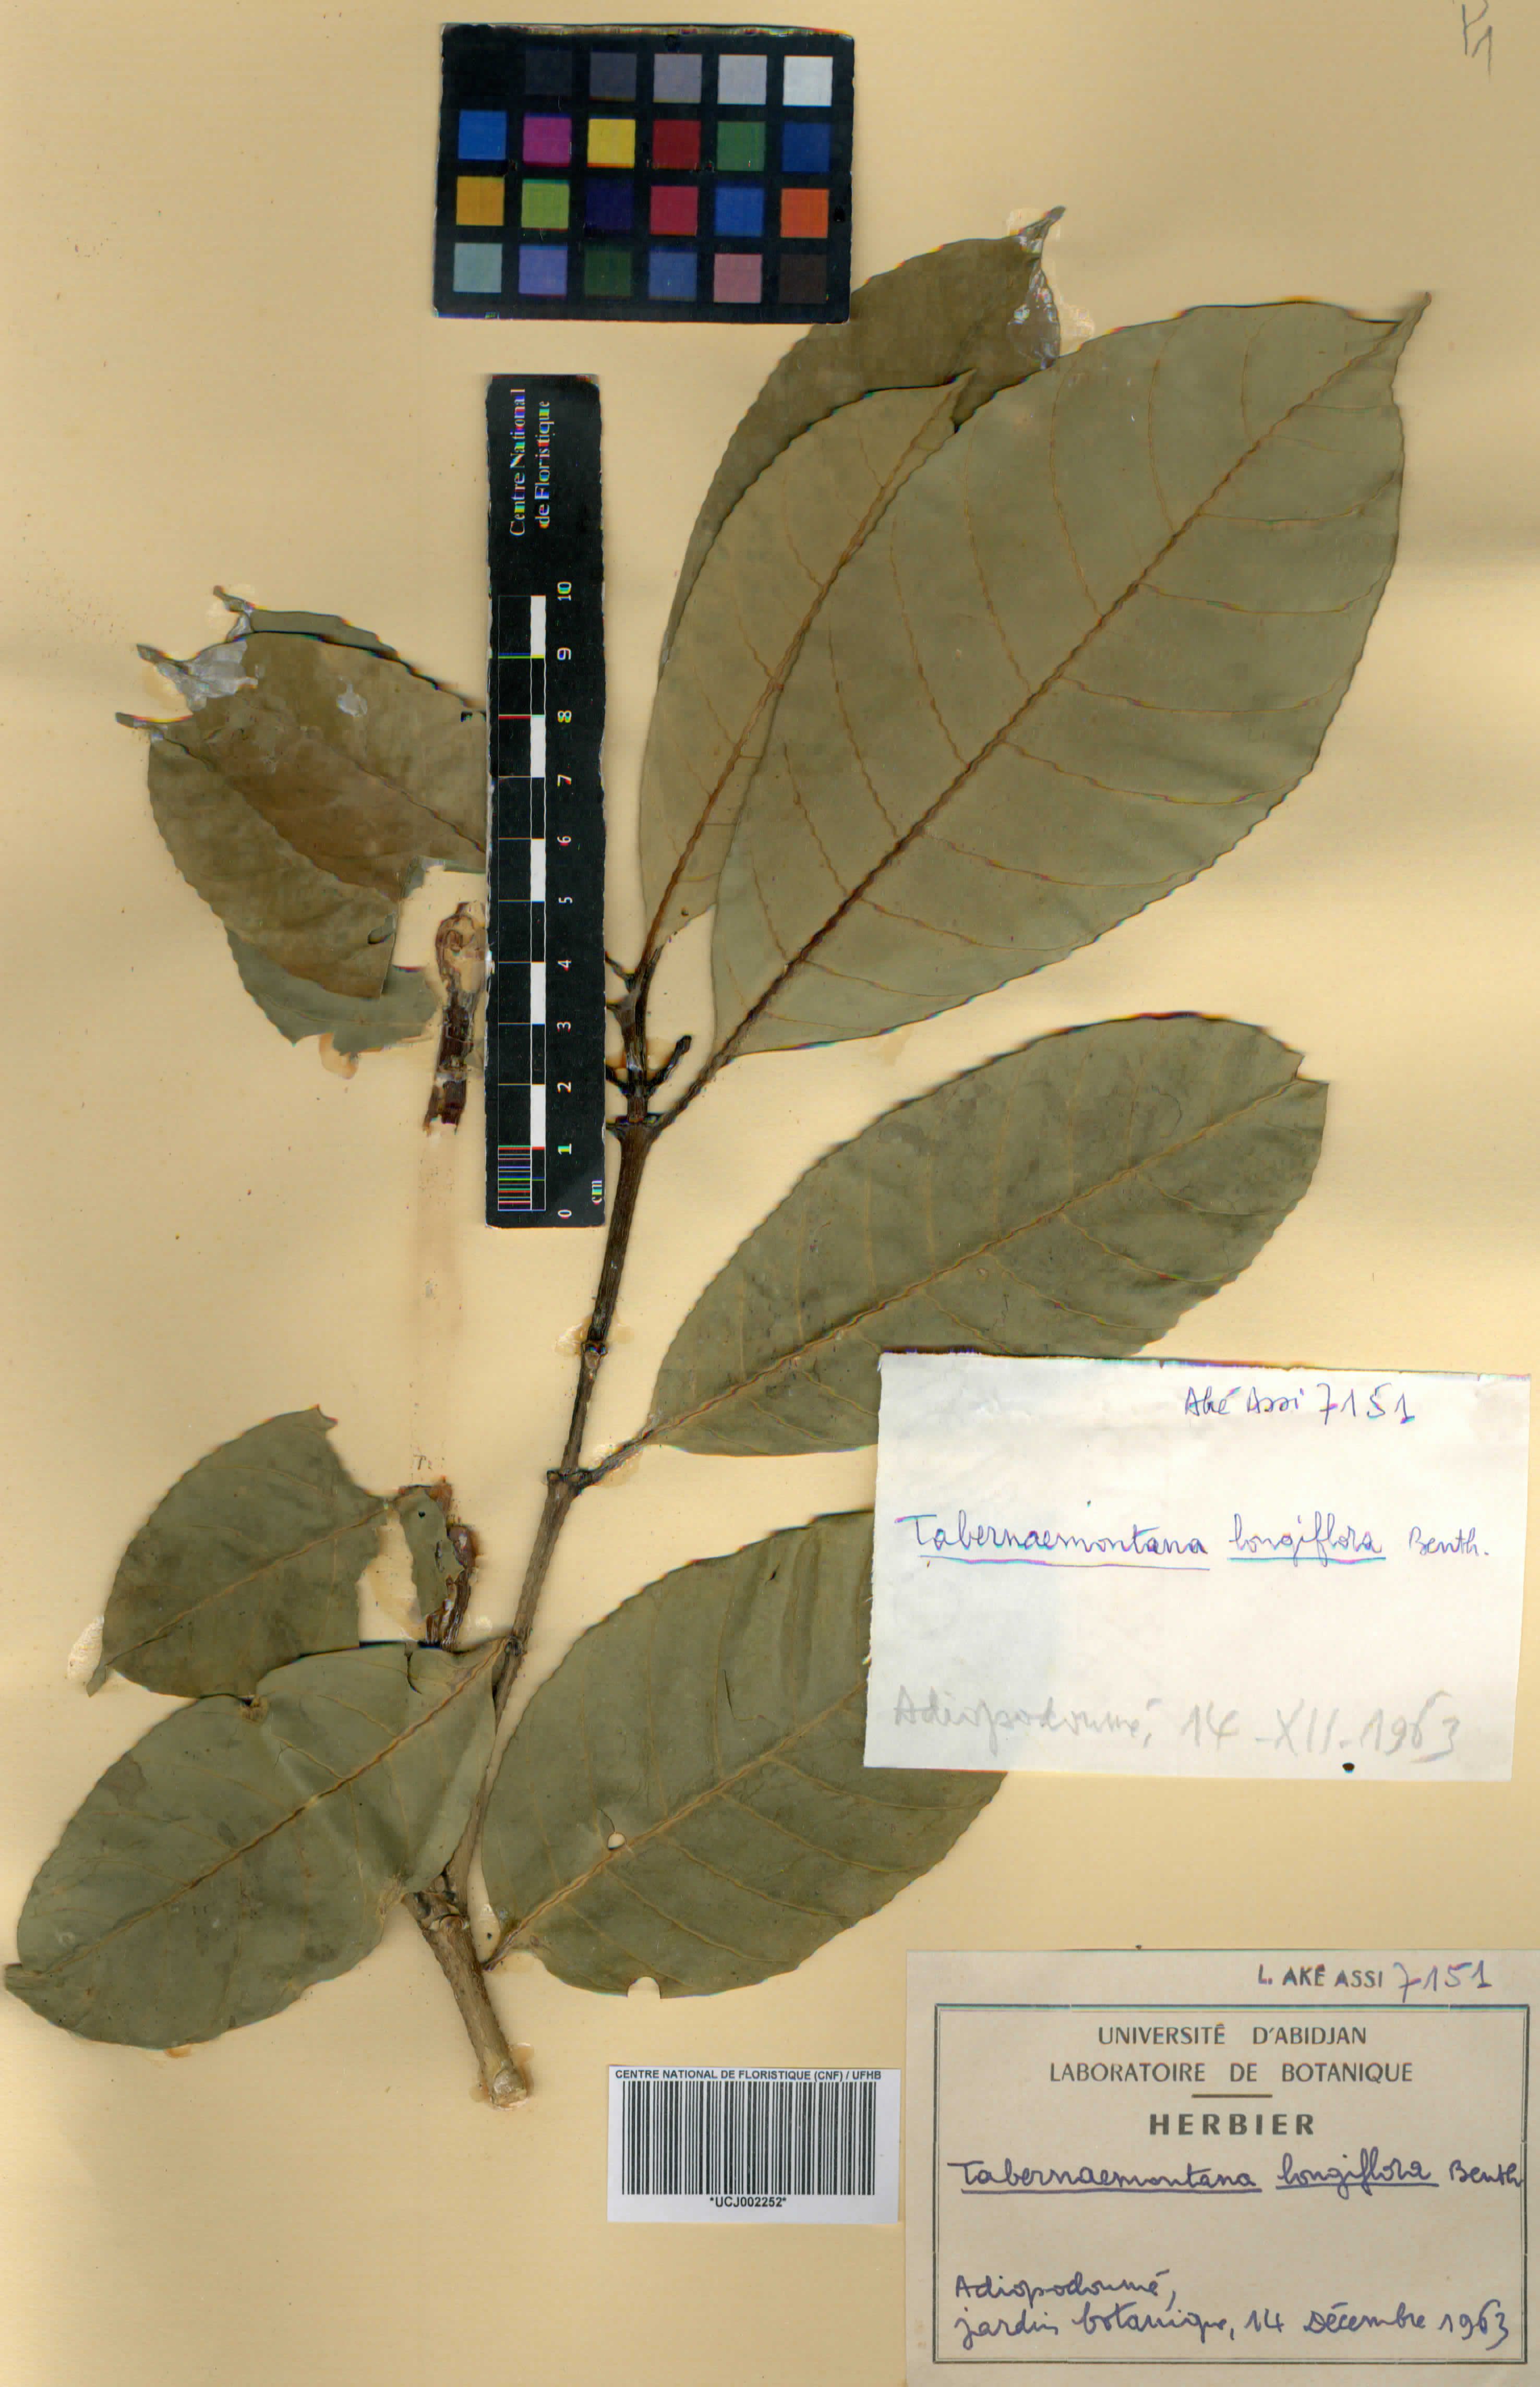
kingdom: Plantae
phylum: Tracheophyta
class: Magnoliopsida
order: Gentianales
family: Apocynaceae
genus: Tabernaemontana
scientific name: Tabernaemontana africana
